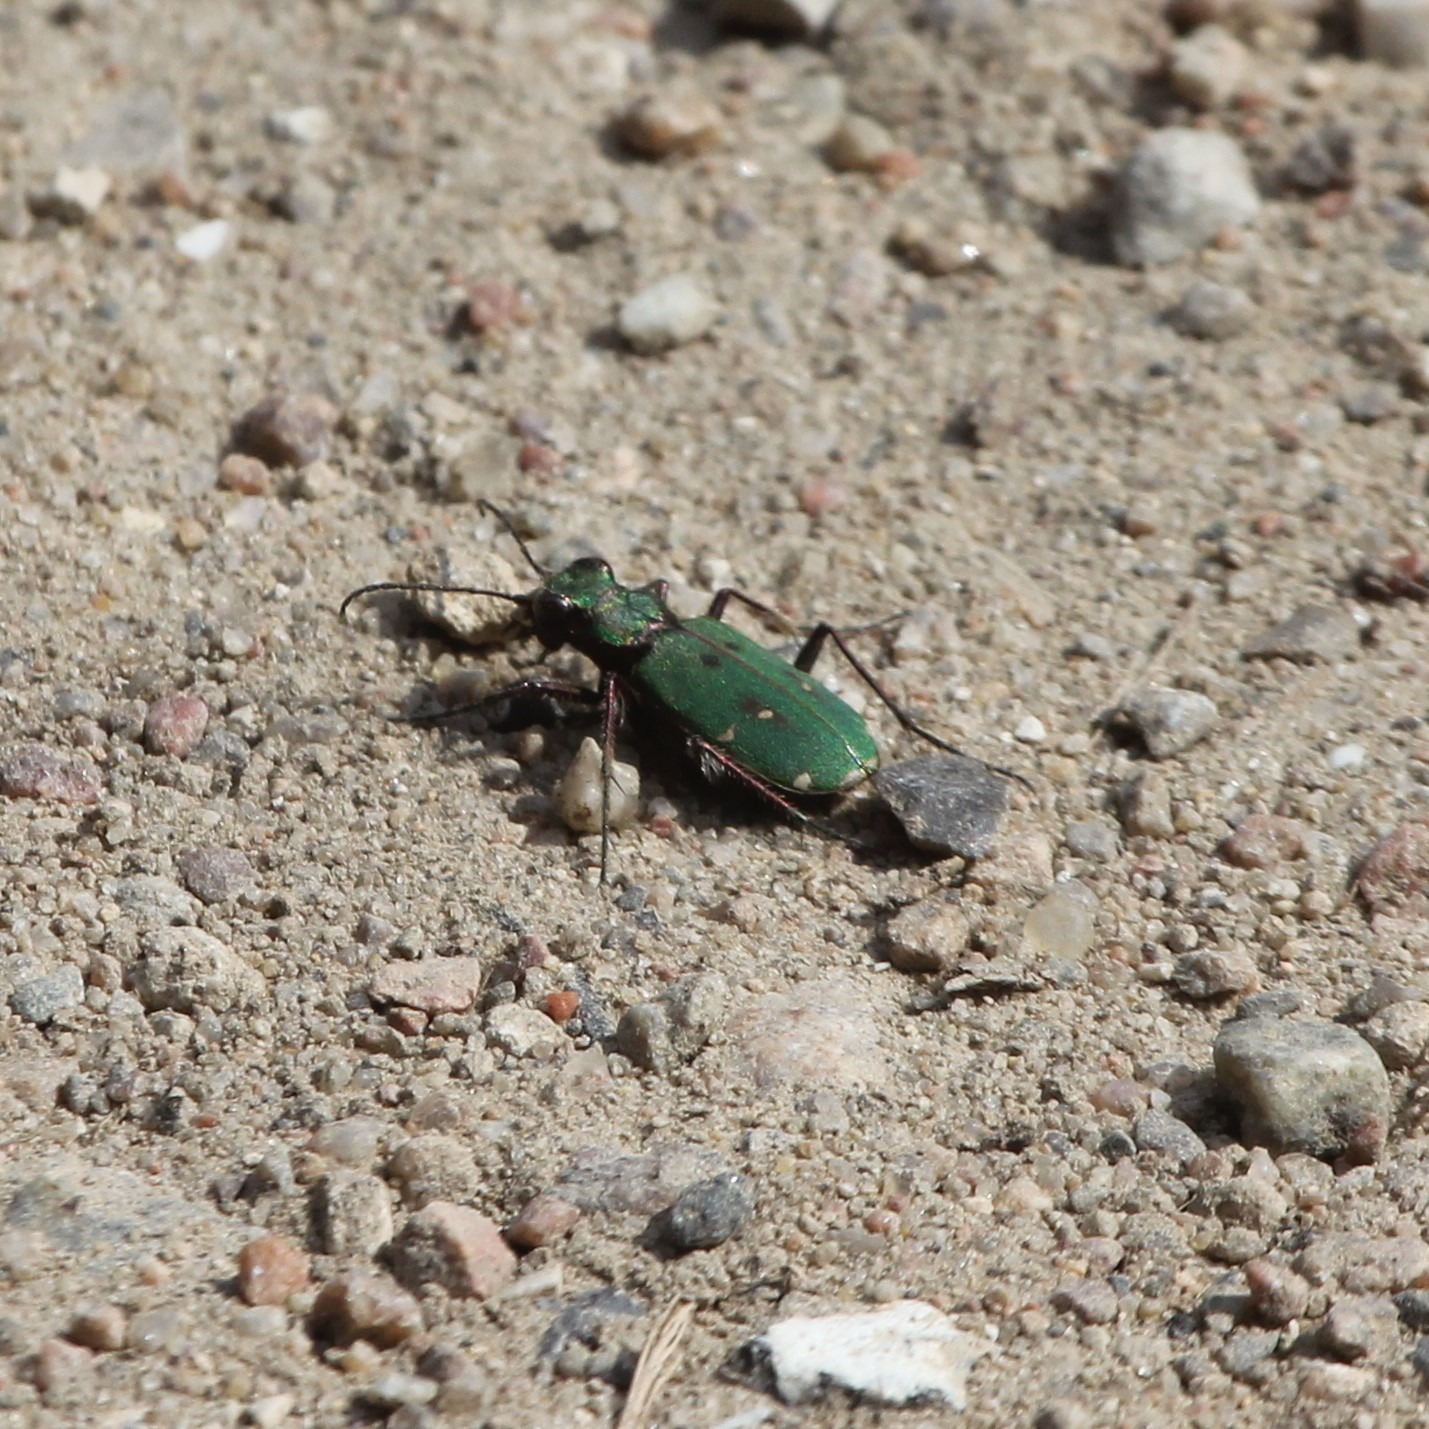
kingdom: Animalia
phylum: Arthropoda
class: Insecta
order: Coleoptera
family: Carabidae
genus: Cicindela
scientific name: Cicindela campestris
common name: Grøn sandspringer
